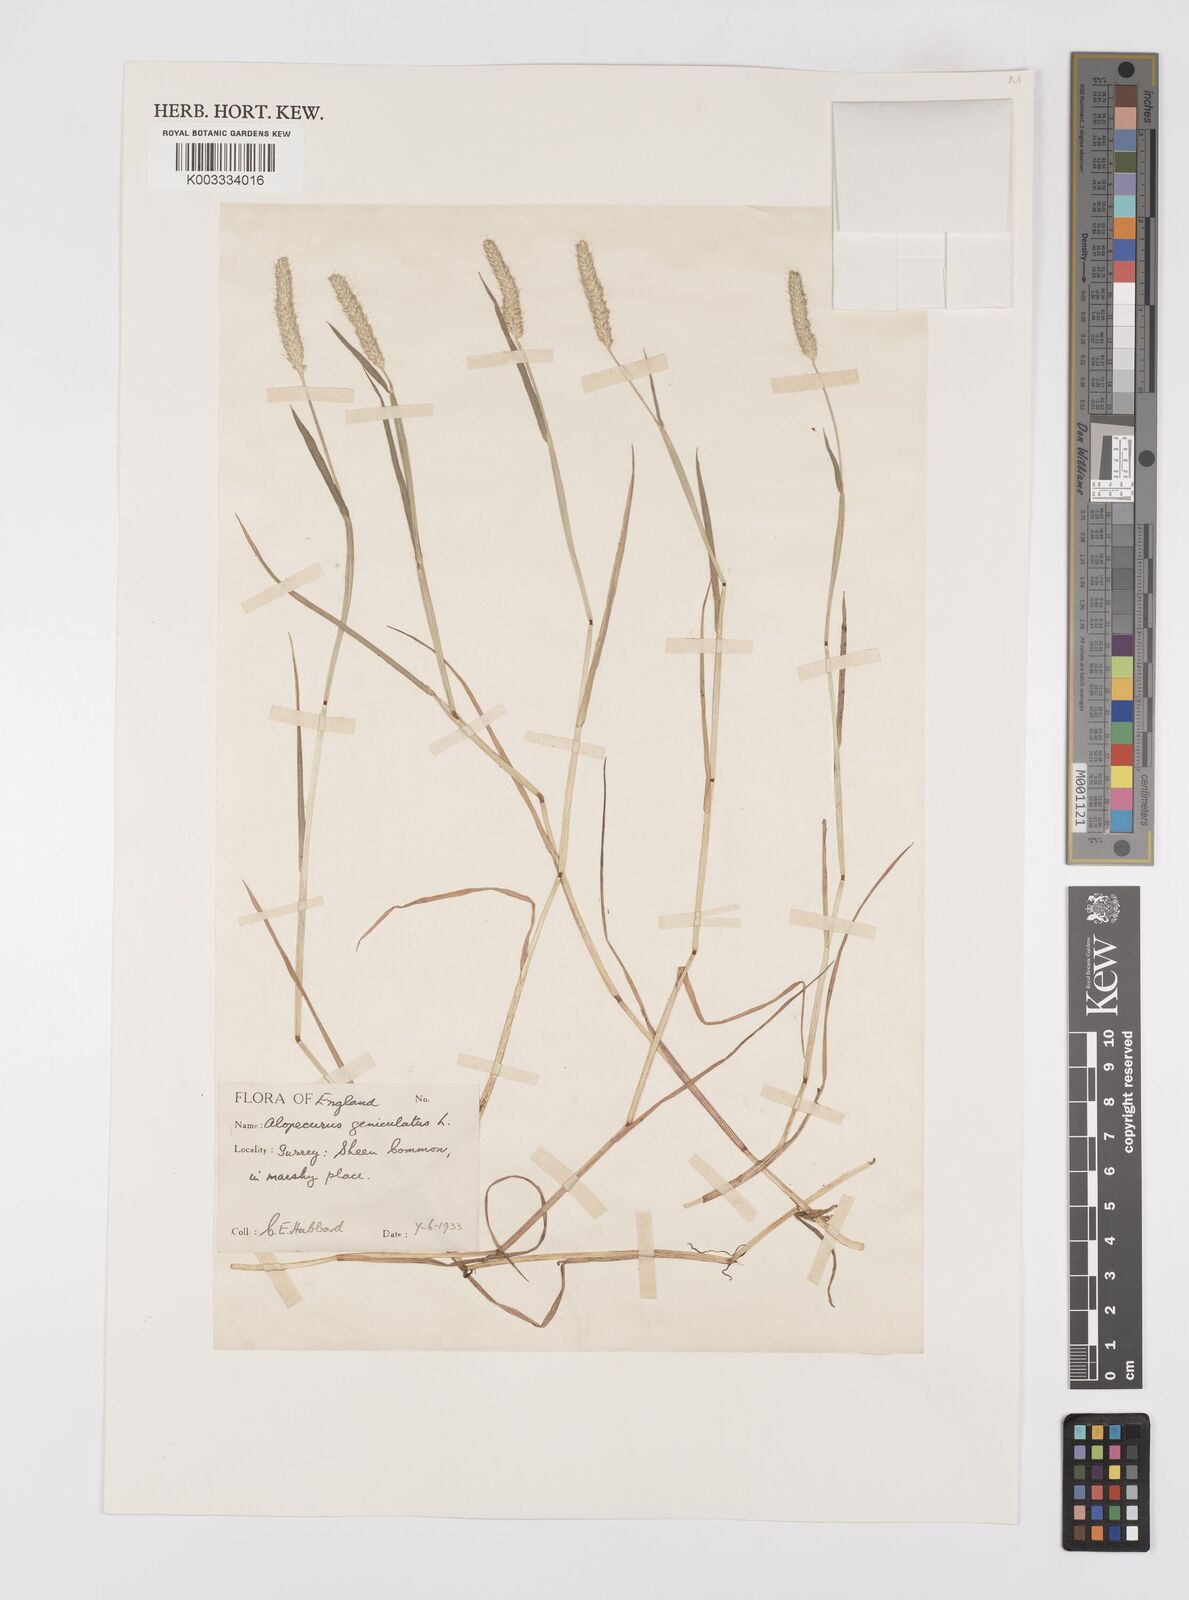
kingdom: Plantae
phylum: Tracheophyta
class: Liliopsida
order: Poales
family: Poaceae
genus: Alopecurus
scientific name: Alopecurus geniculatus
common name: Water foxtail
